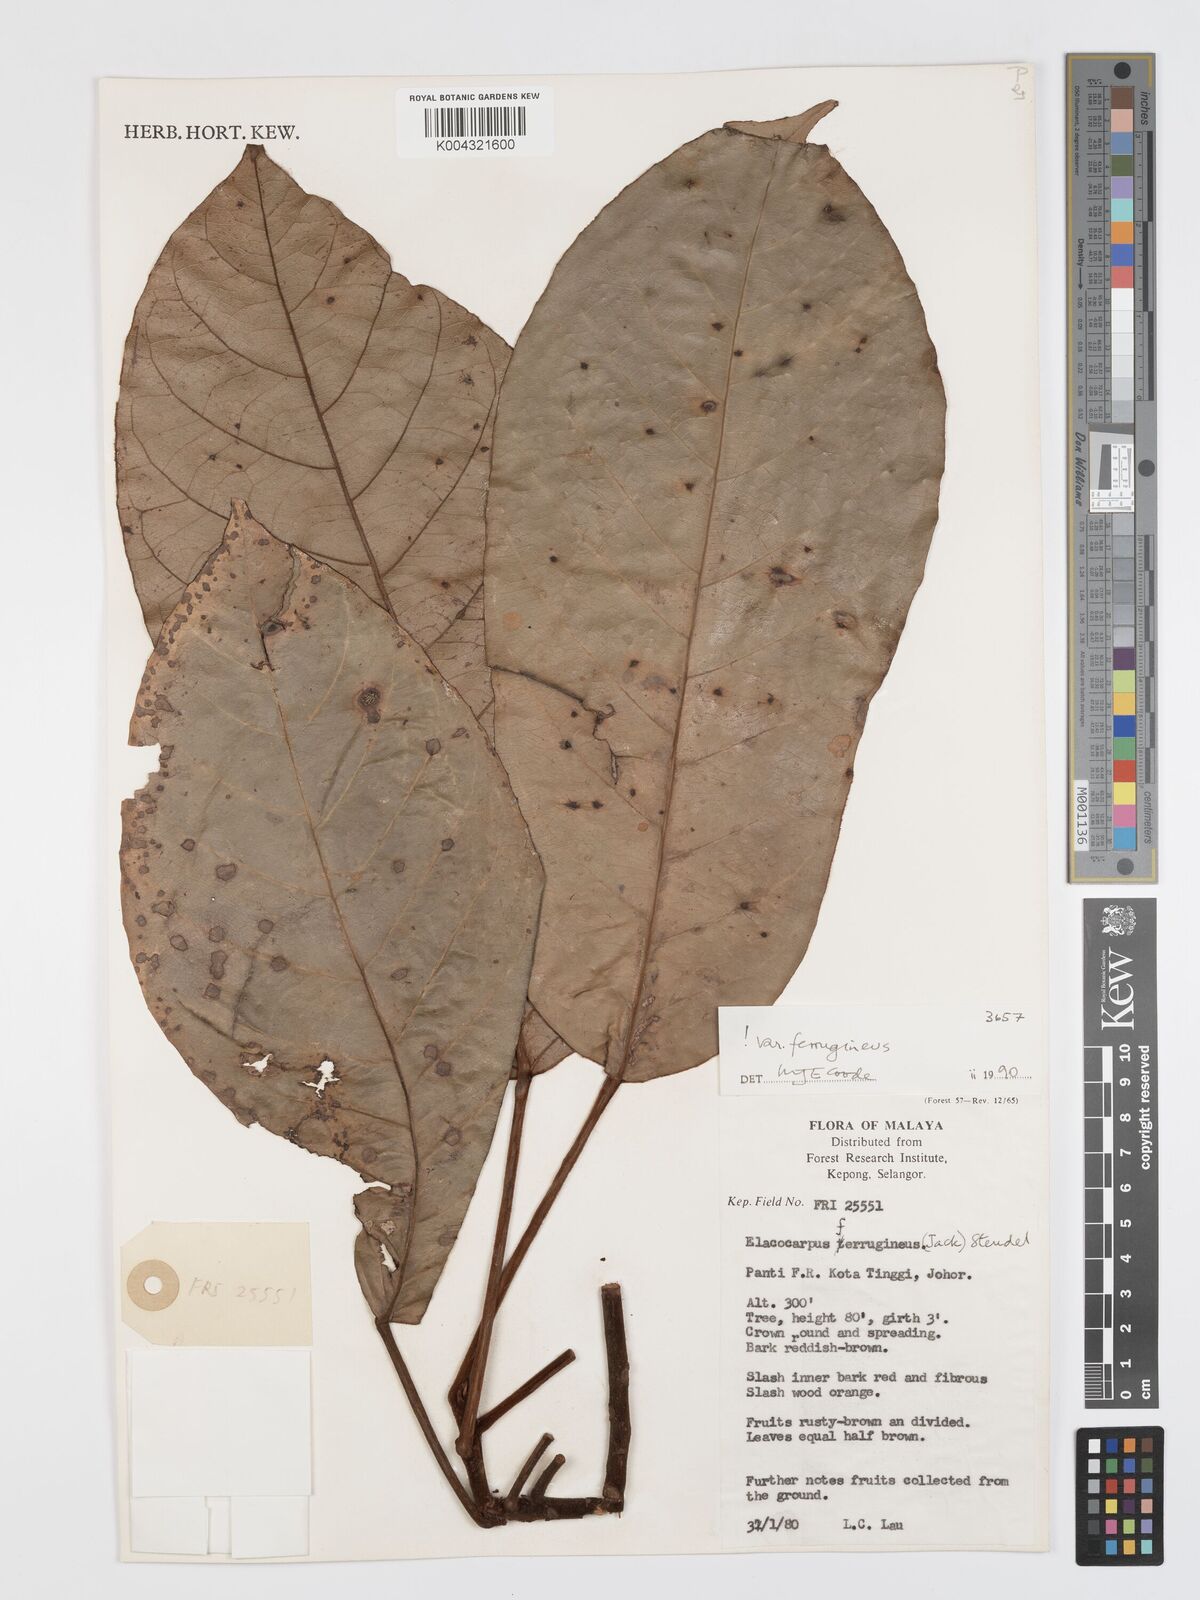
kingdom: Plantae
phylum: Tracheophyta
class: Magnoliopsida
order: Oxalidales
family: Elaeocarpaceae
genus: Elaeocarpus
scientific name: Elaeocarpus ferrugineus
